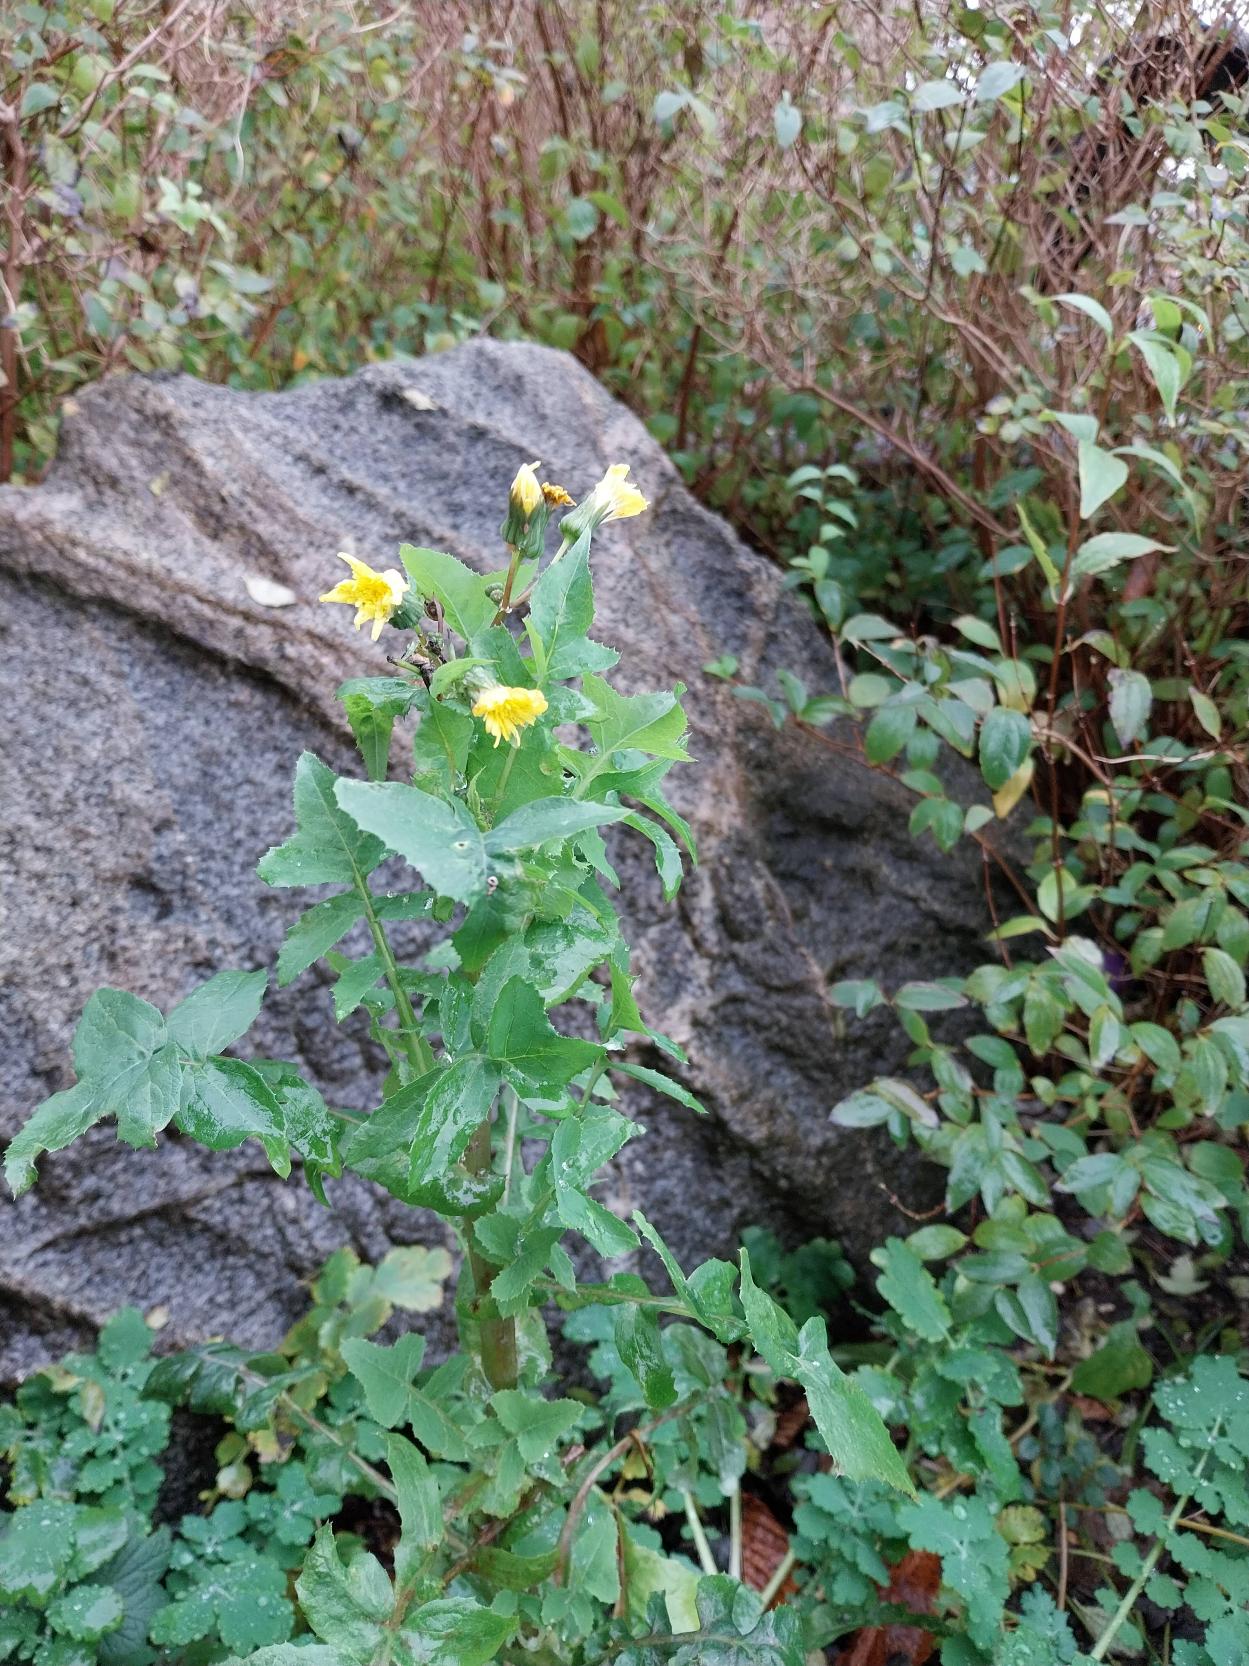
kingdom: Plantae
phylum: Tracheophyta
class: Magnoliopsida
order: Asterales
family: Asteraceae
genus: Sonchus
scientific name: Sonchus oleraceus
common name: Almindelig svinemælk
